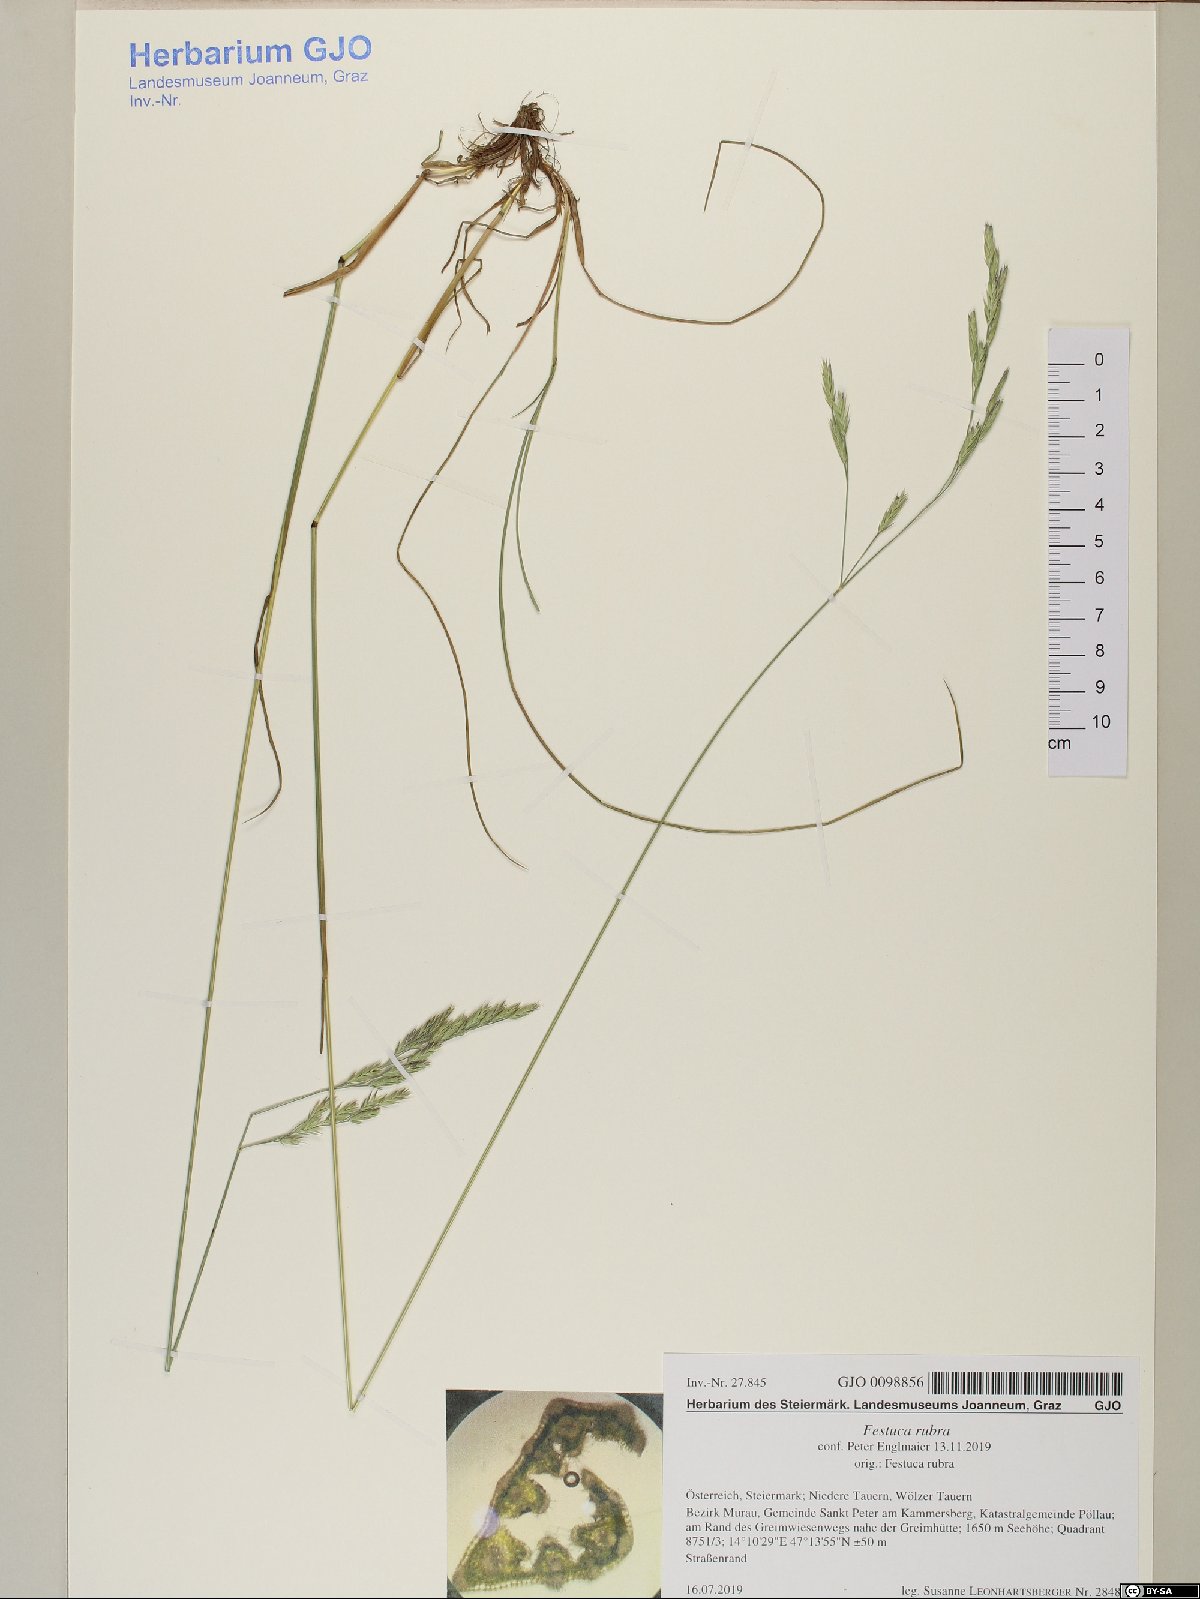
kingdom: Plantae
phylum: Tracheophyta
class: Liliopsida
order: Poales
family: Poaceae
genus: Festuca
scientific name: Festuca rubra
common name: Red fescue
